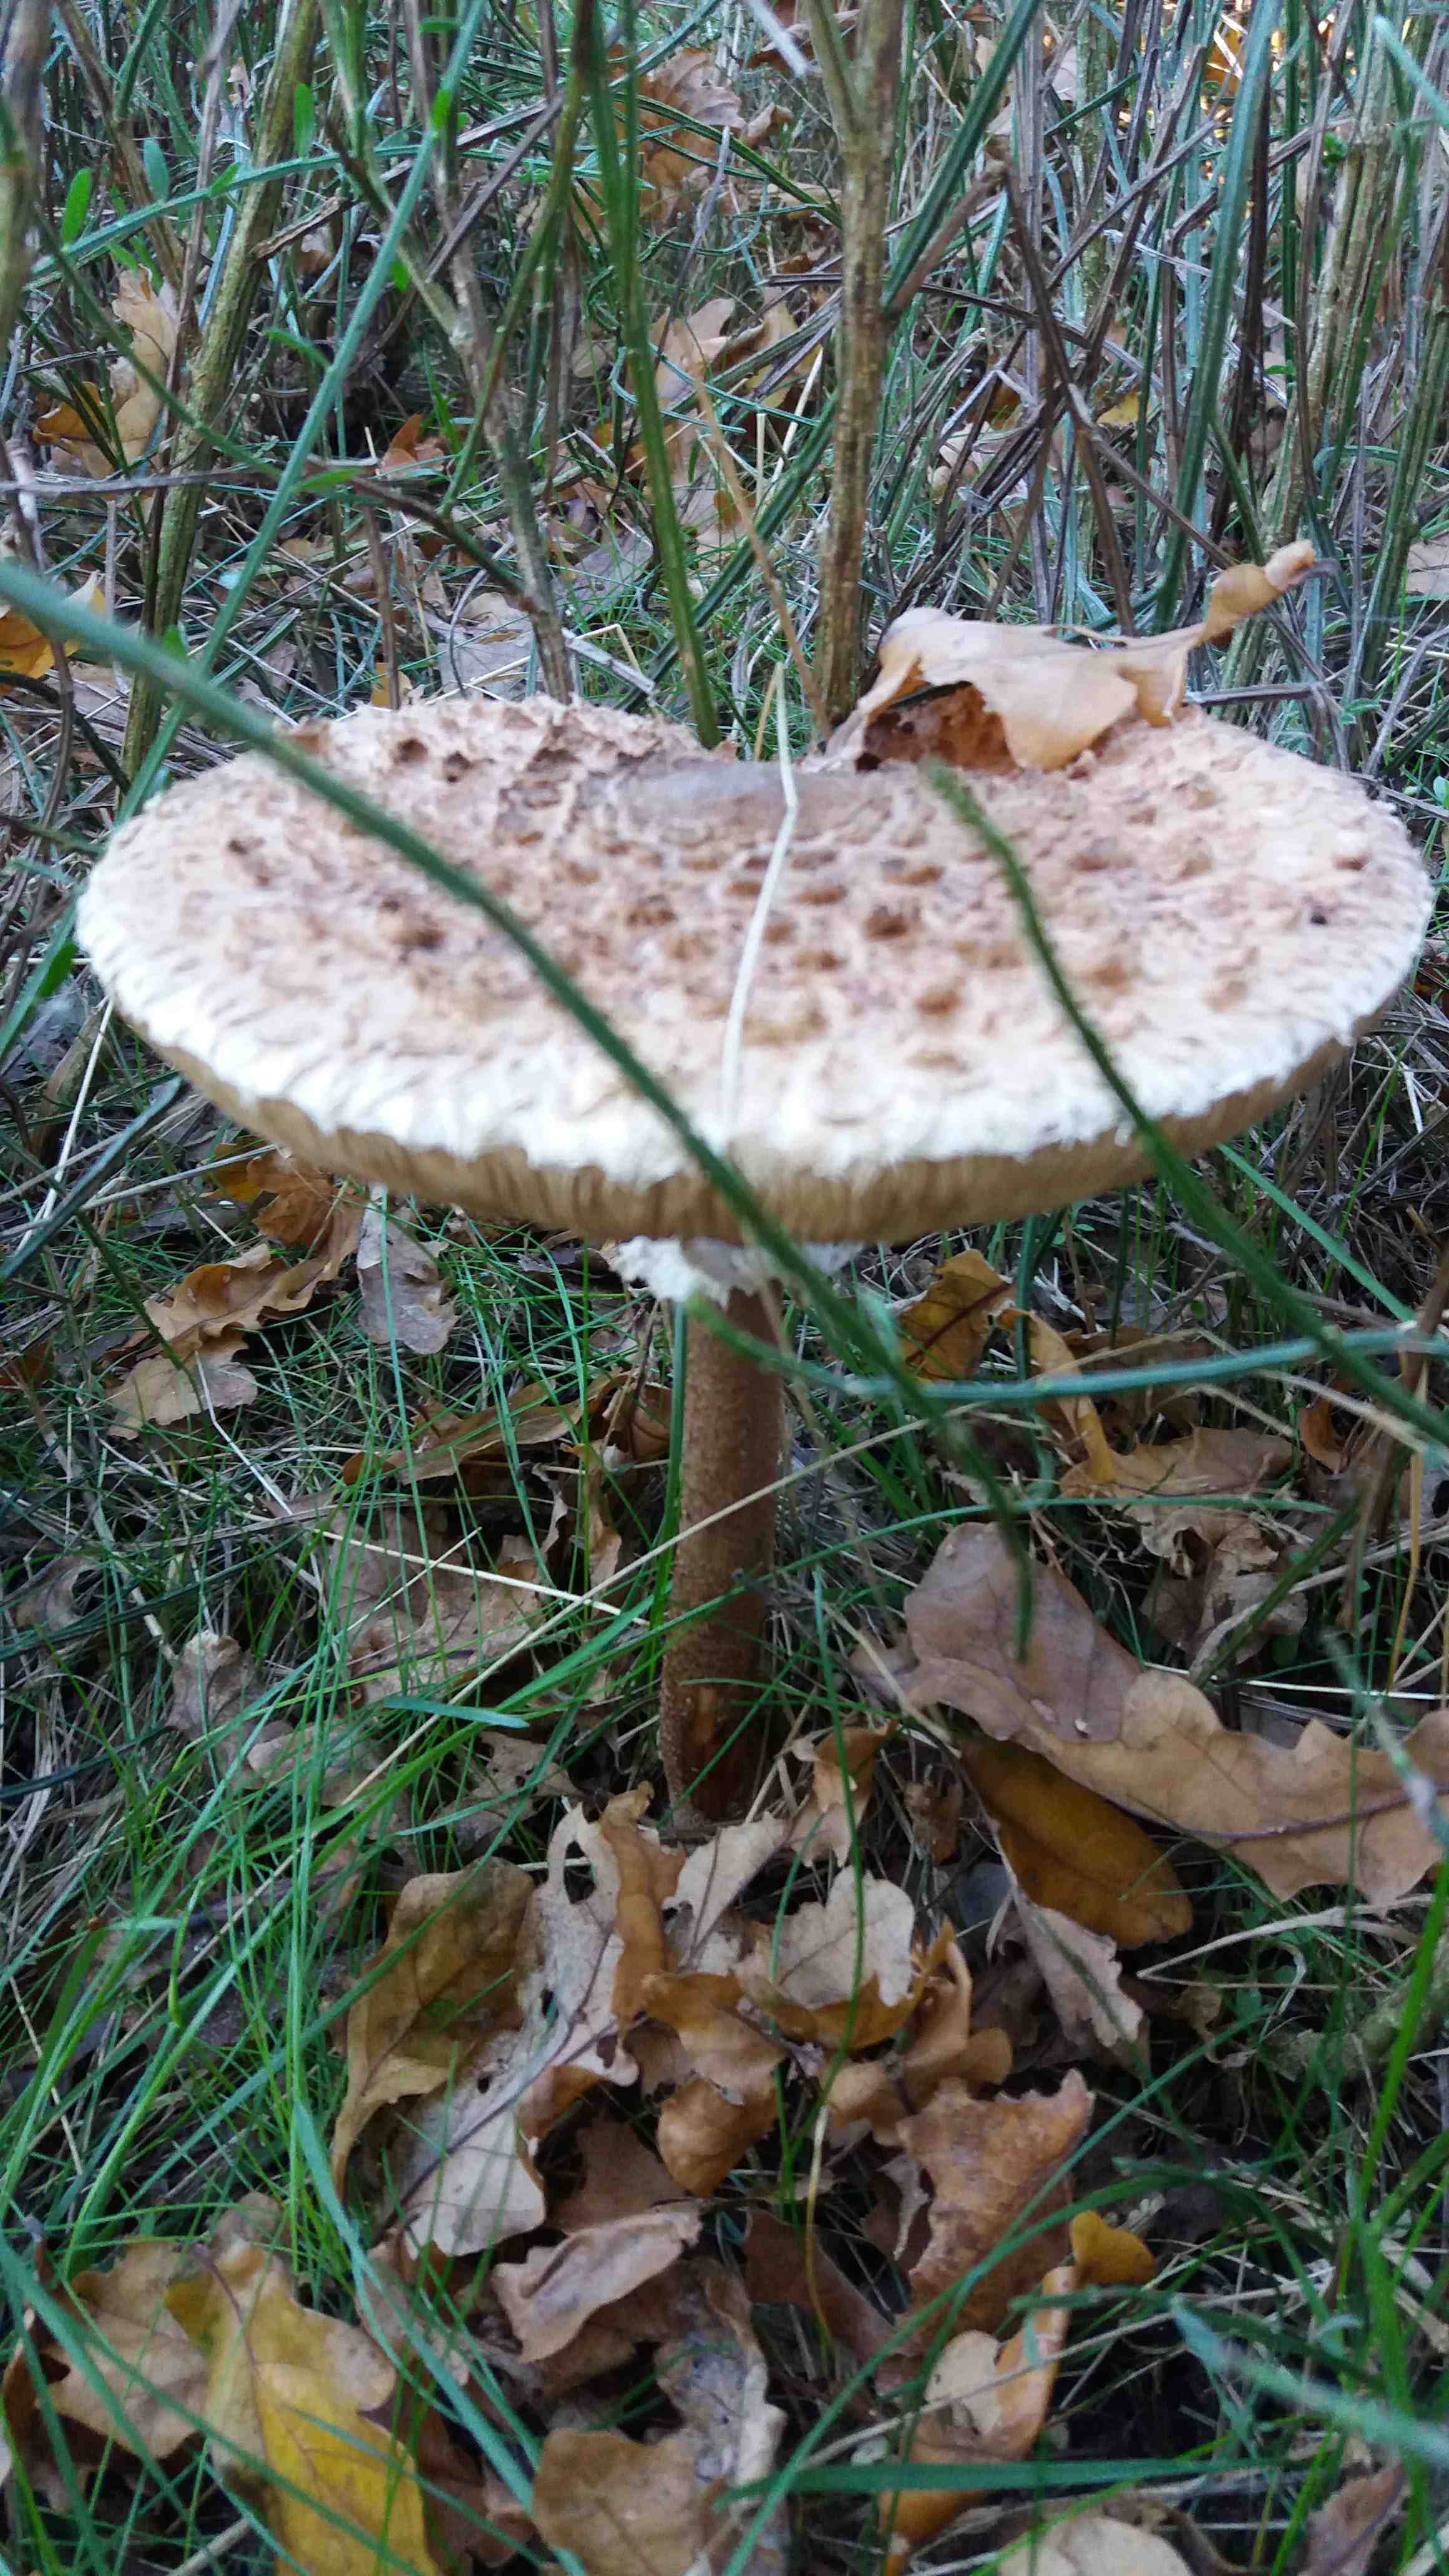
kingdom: Fungi
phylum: Basidiomycota
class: Agaricomycetes
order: Agaricales
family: Agaricaceae
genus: Macrolepiota
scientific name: Macrolepiota procera
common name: stor kæmpeparasolhat
